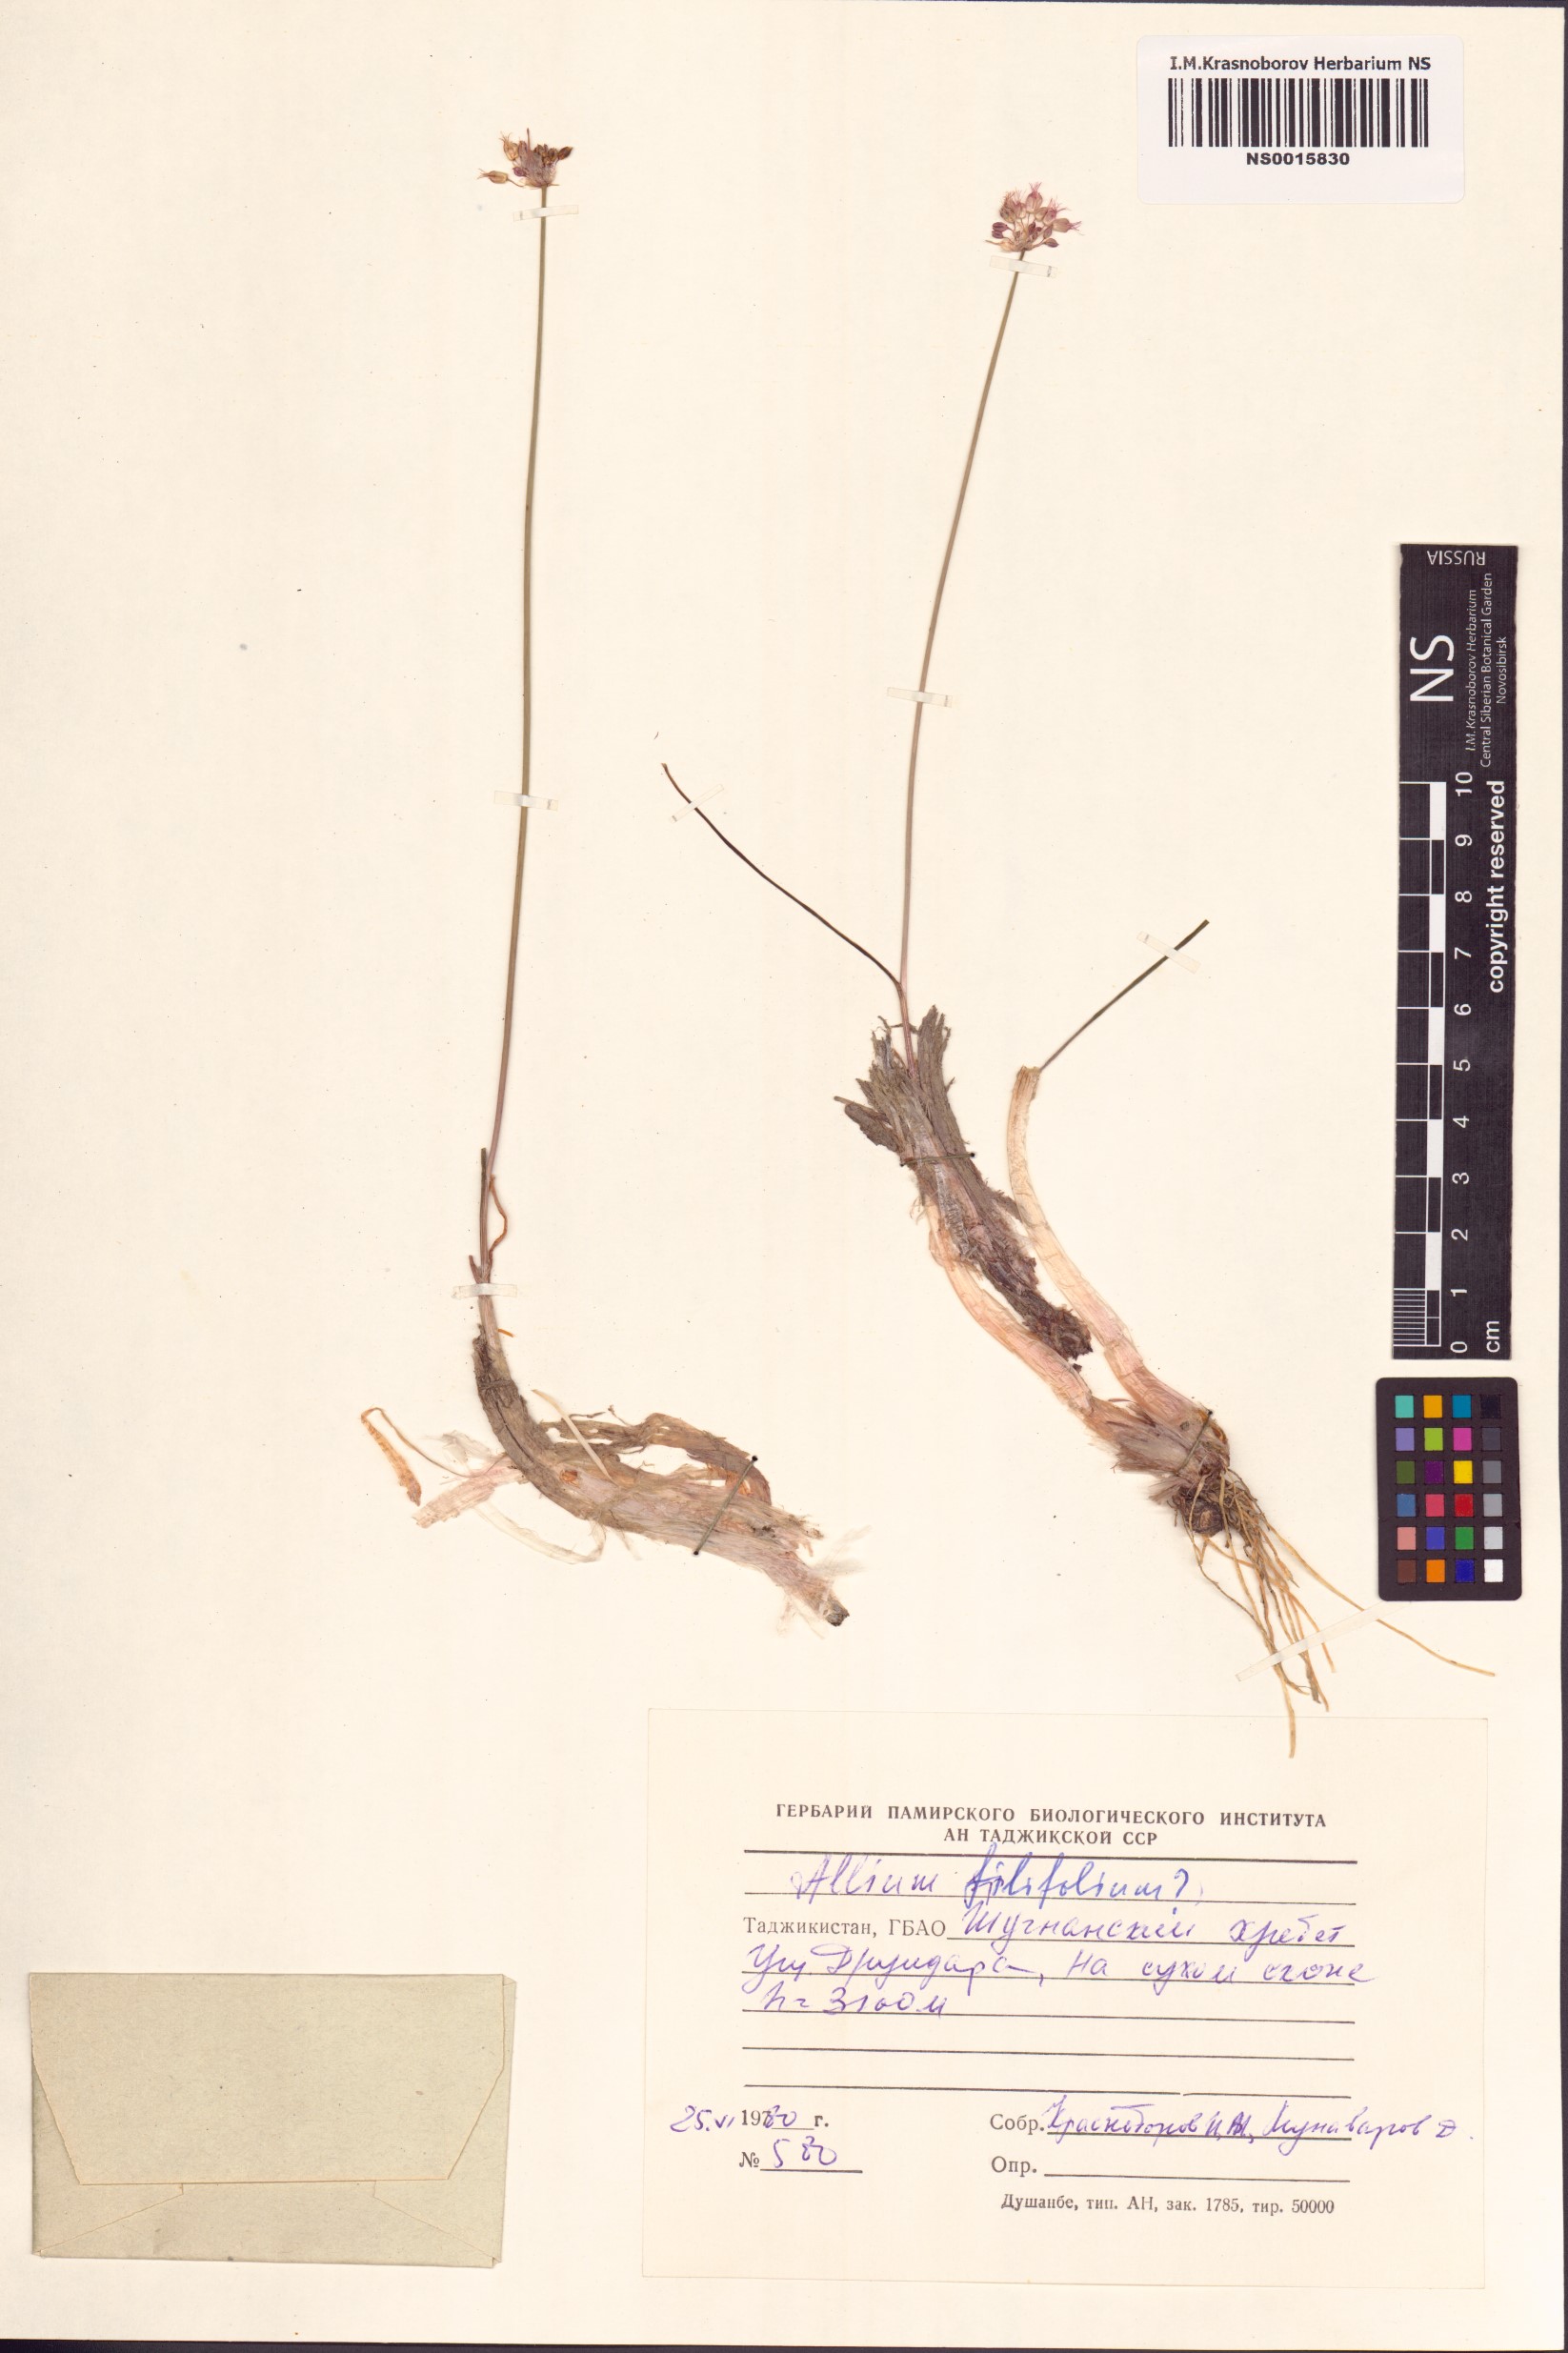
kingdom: Plantae
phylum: Tracheophyta
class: Liliopsida
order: Asparagales
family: Amaryllidaceae
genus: Allium
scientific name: Allium kokanicum
